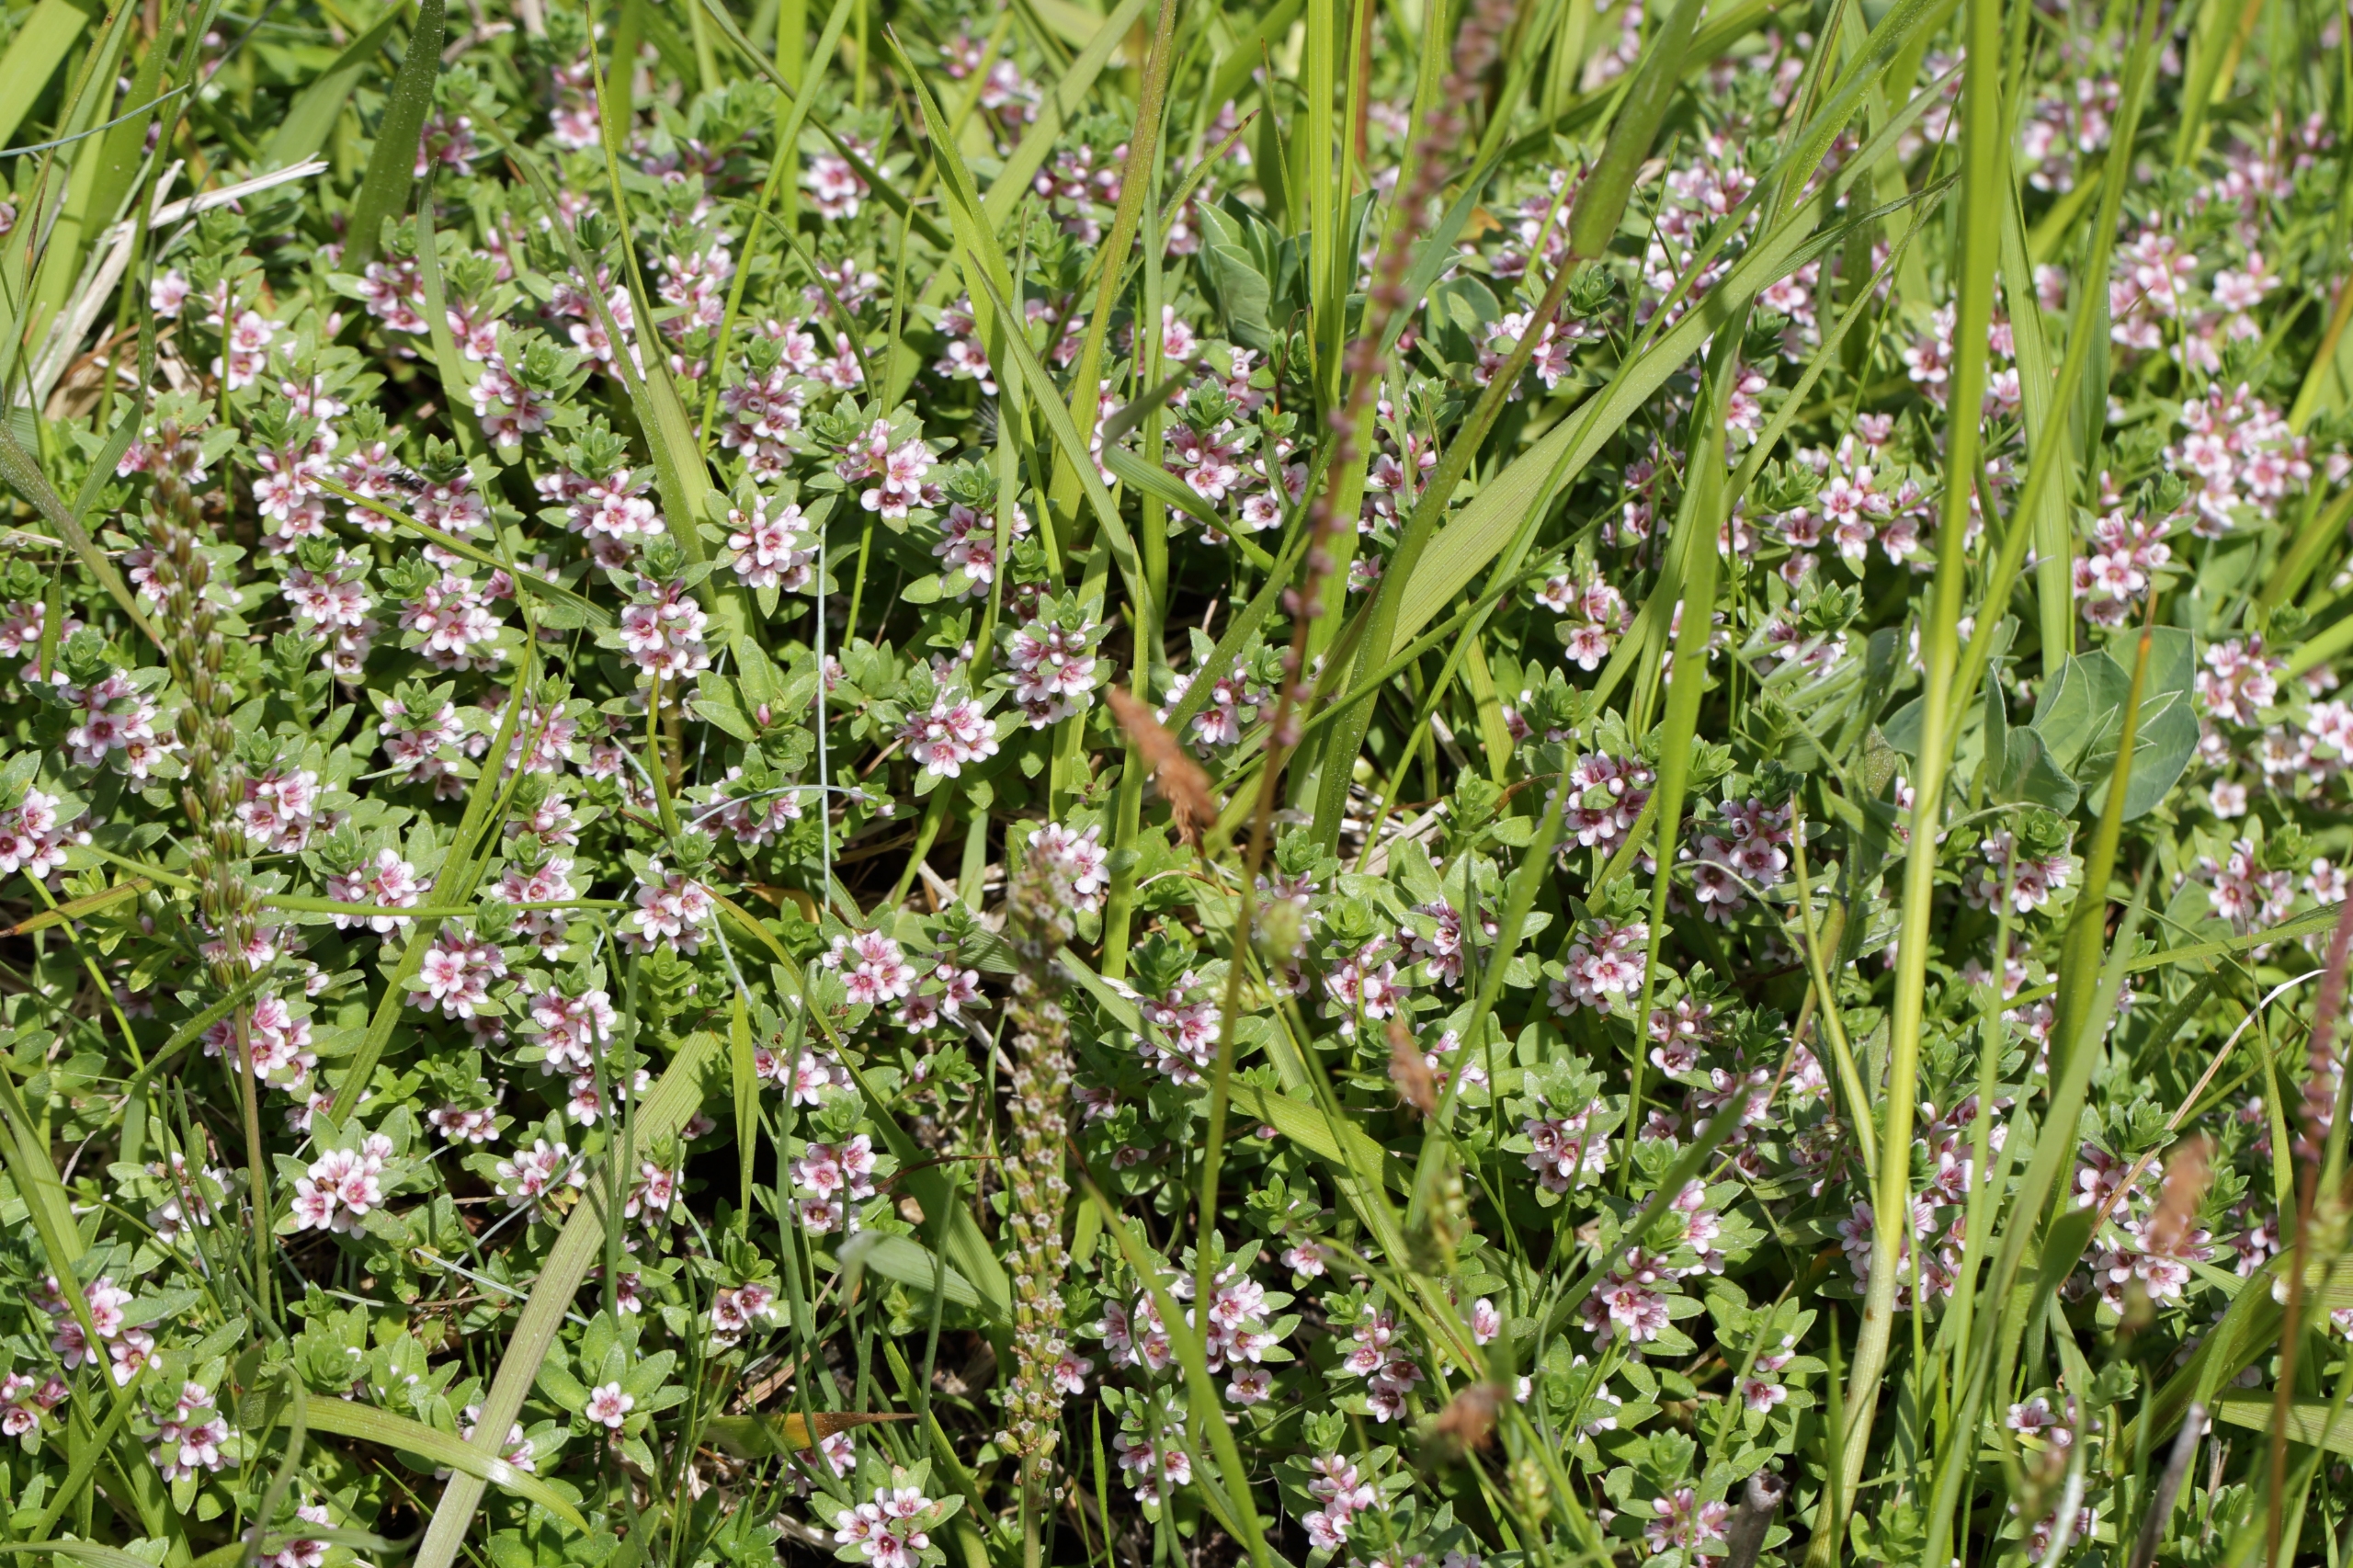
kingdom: Plantae
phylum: Tracheophyta
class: Magnoliopsida
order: Ericales
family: Primulaceae
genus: Lysimachia
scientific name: Lysimachia maritima
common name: Sandkryb
